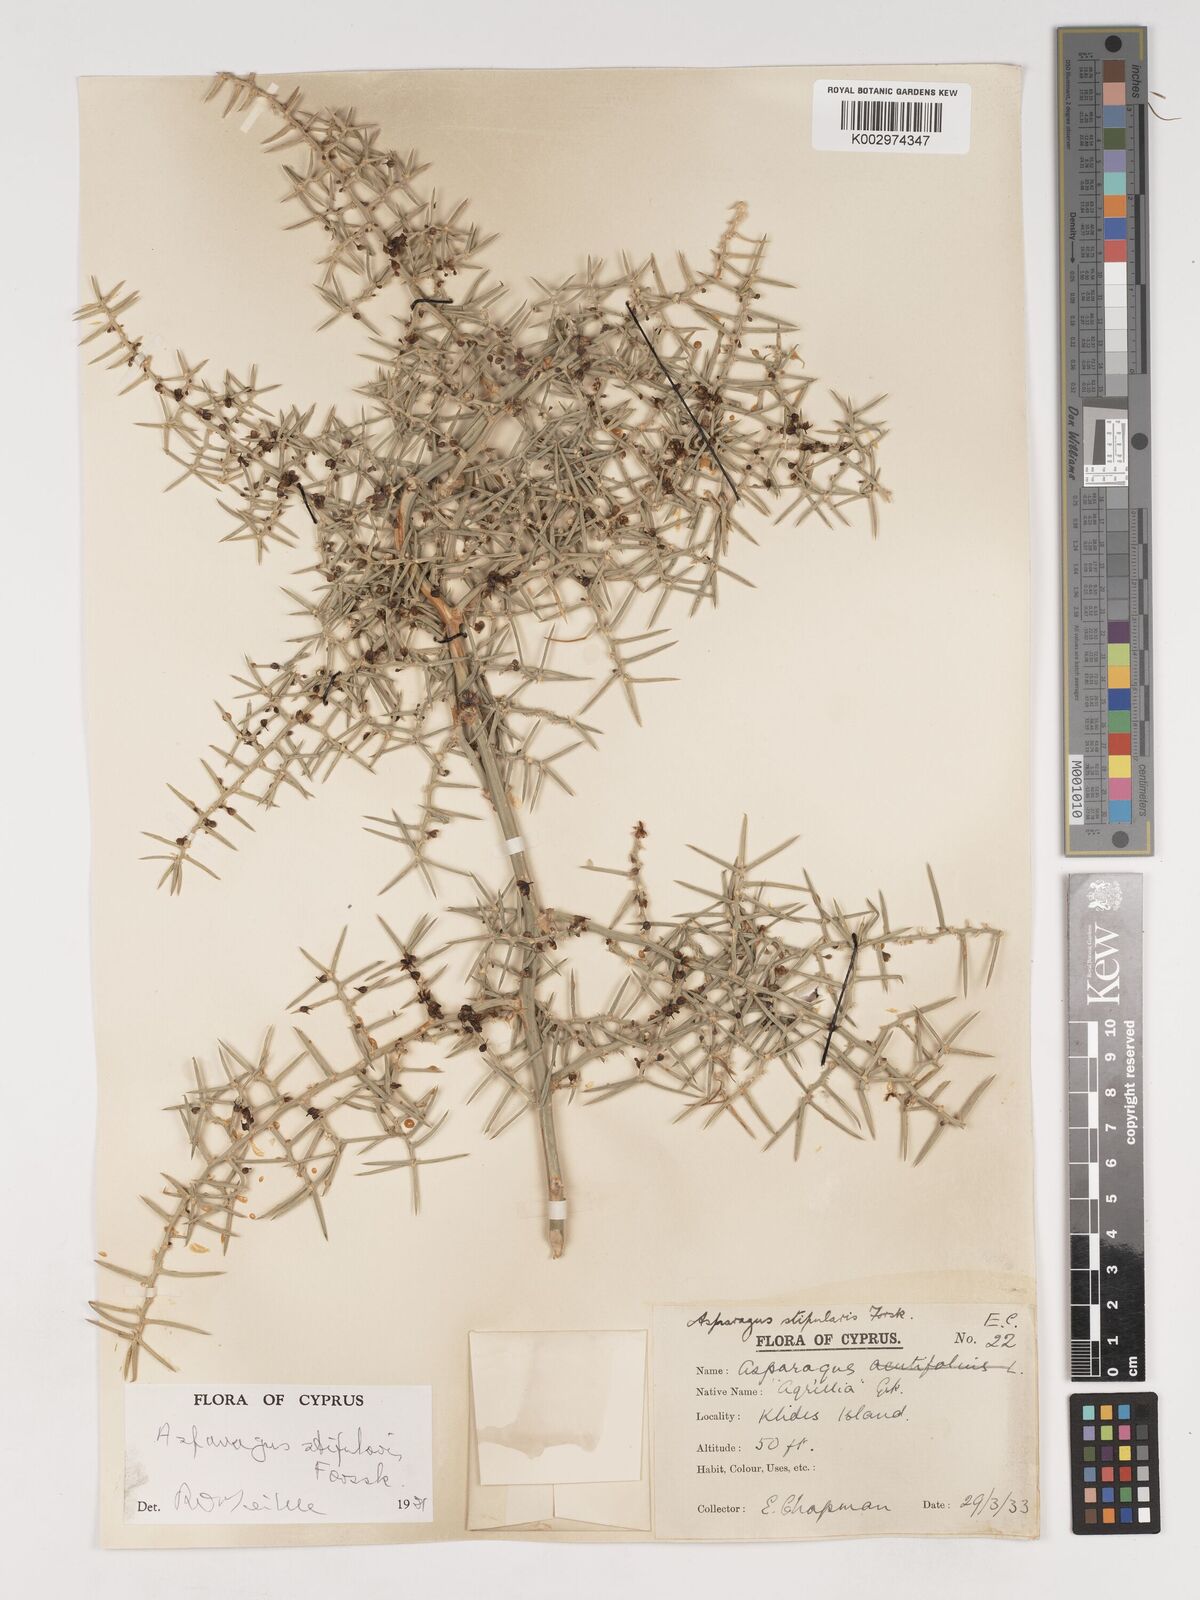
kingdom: Plantae
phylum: Tracheophyta
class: Liliopsida
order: Asparagales
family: Asparagaceae
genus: Asparagus
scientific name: Asparagus horridus
